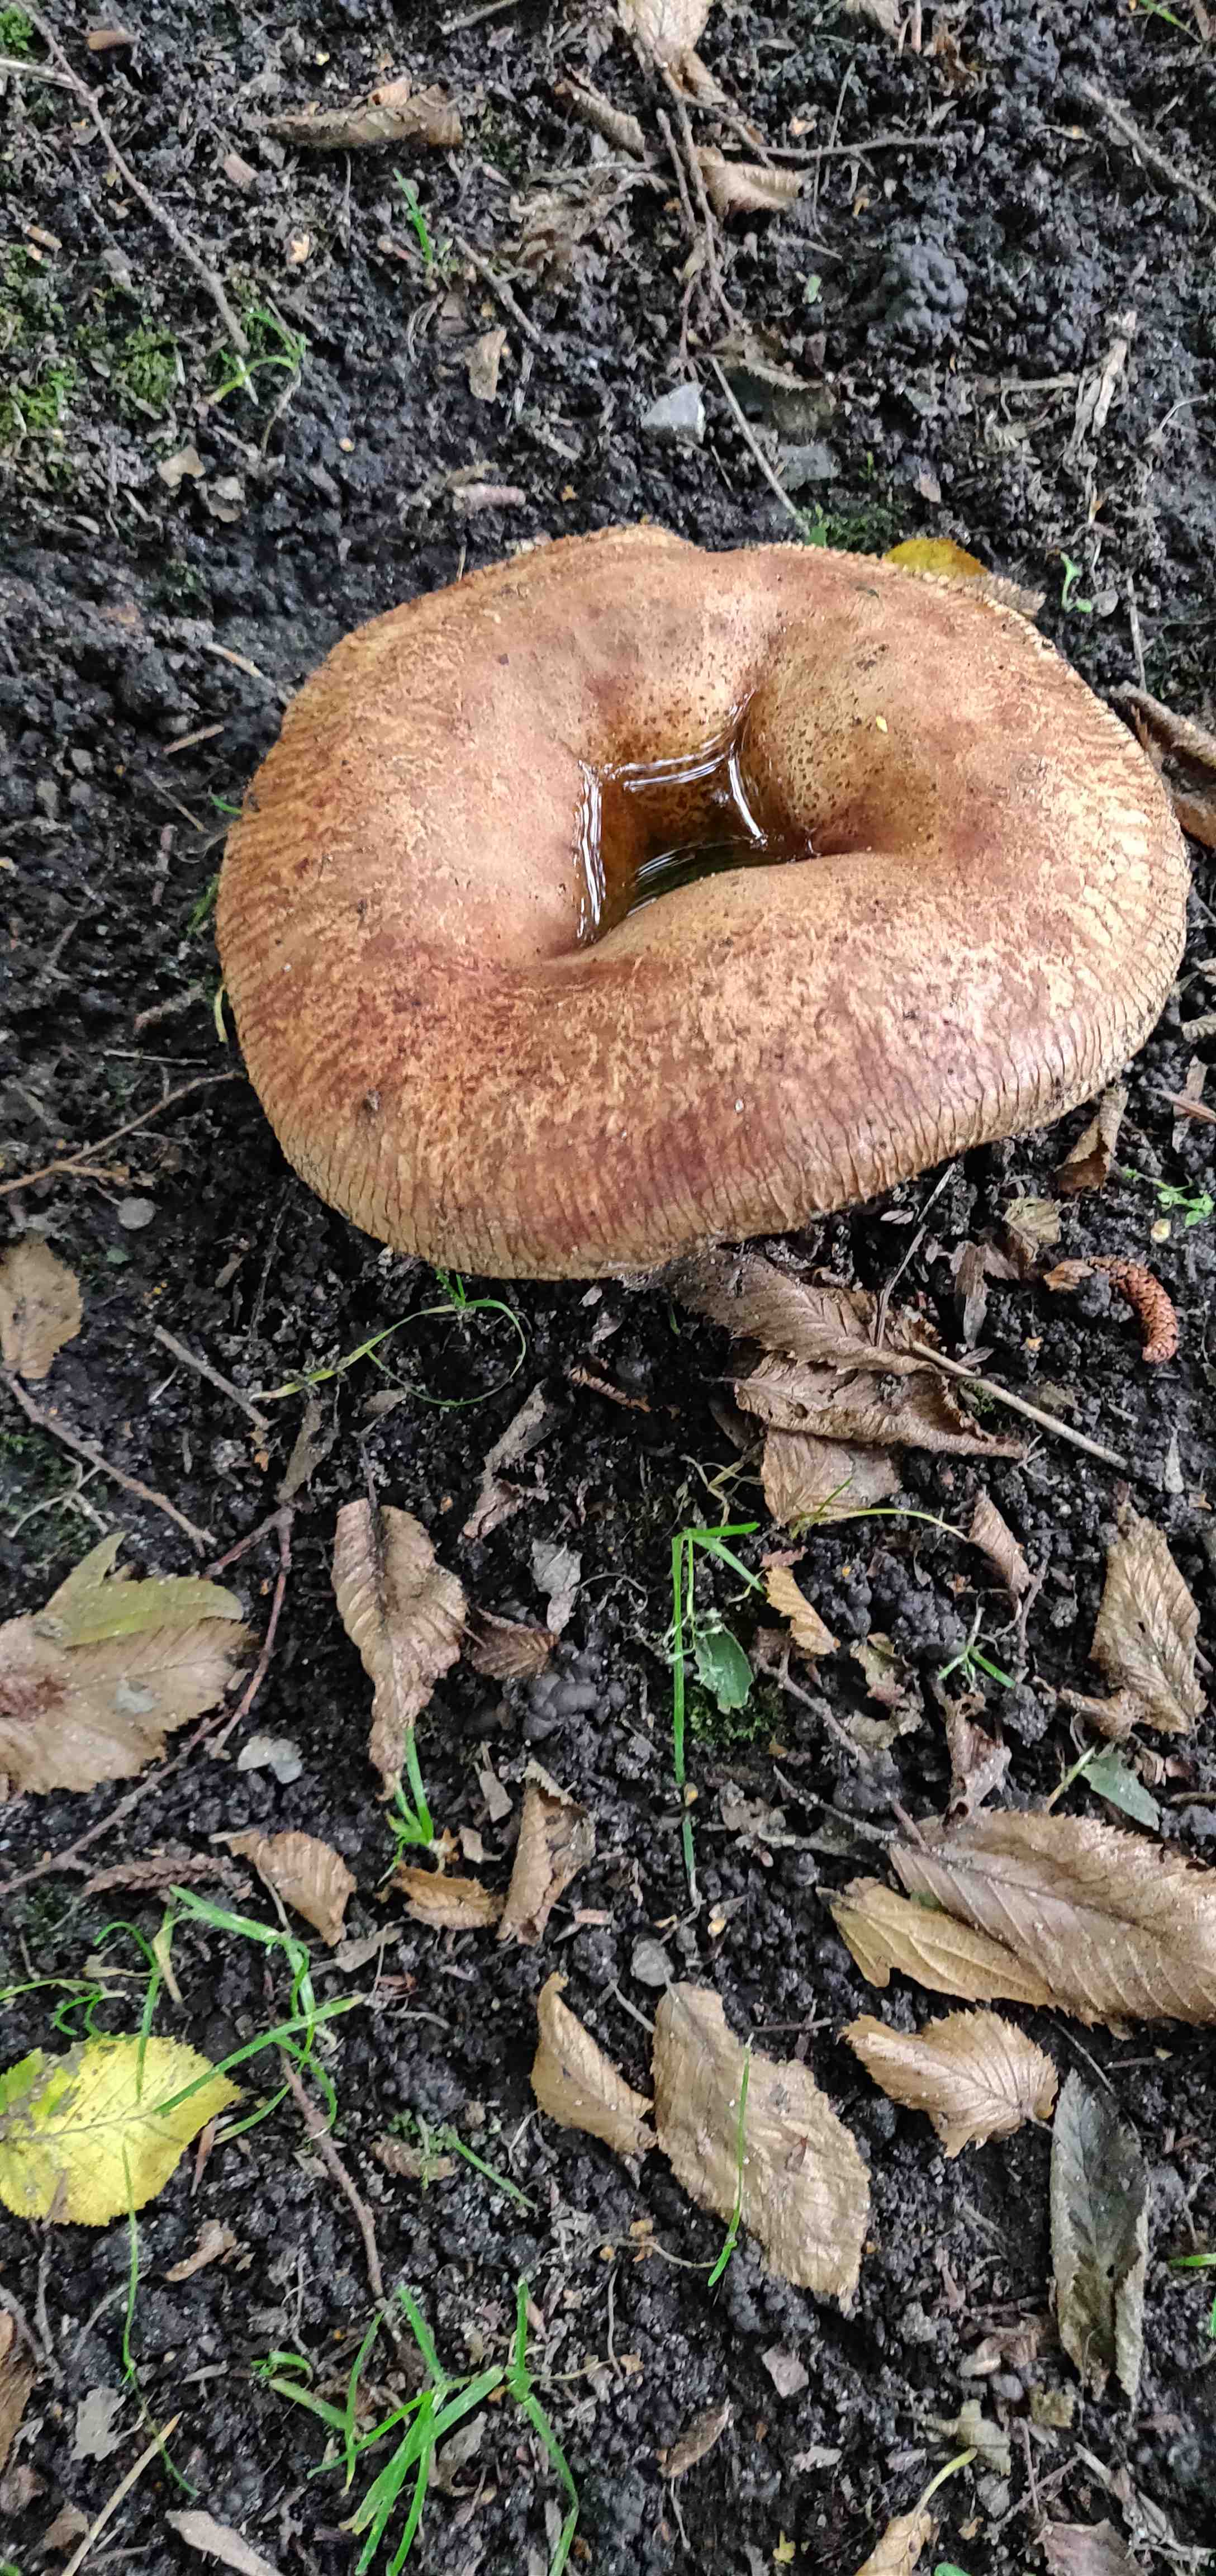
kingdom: Fungi
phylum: Basidiomycota
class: Agaricomycetes
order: Boletales
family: Paxillaceae
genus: Paxillus
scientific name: Paxillus
